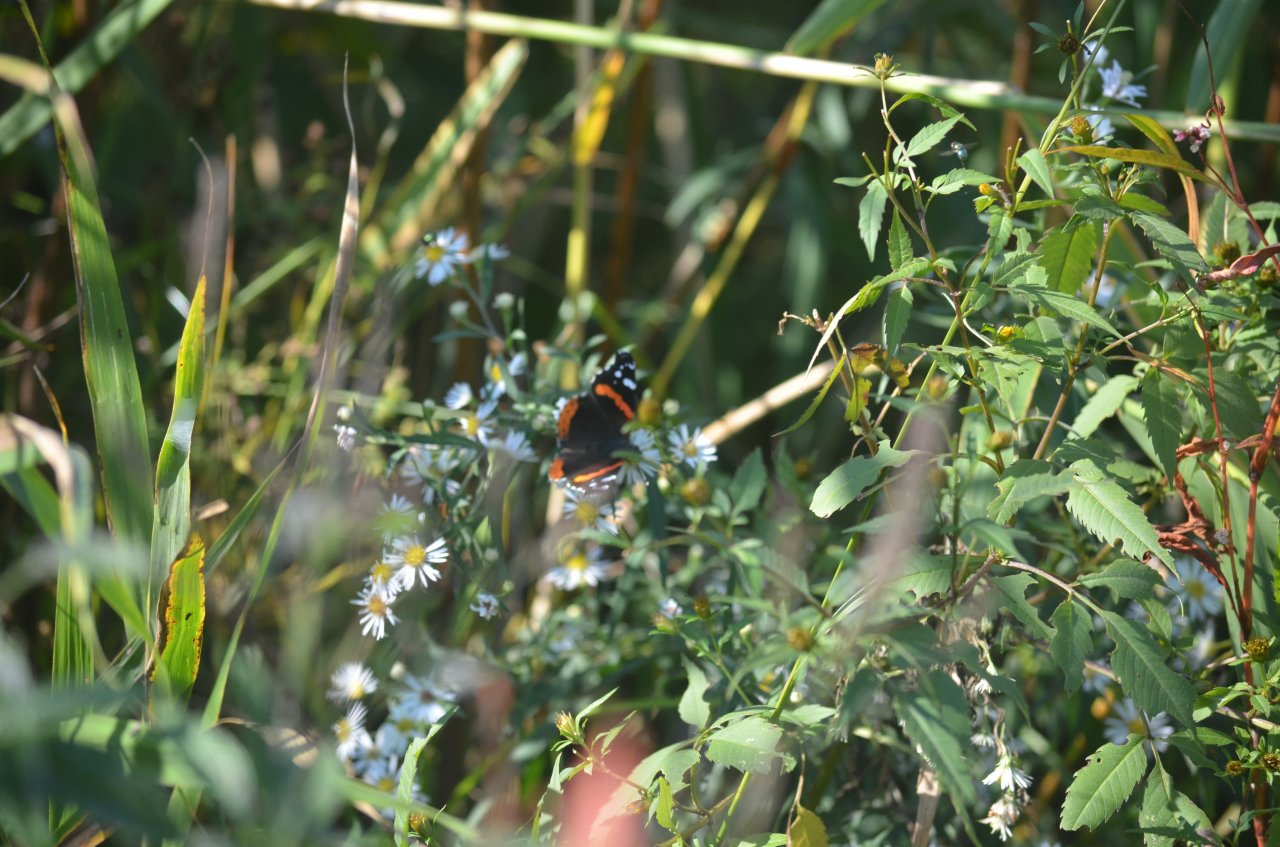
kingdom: Animalia
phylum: Arthropoda
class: Insecta
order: Lepidoptera
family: Nymphalidae
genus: Vanessa
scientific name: Vanessa atalanta
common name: Red Admiral
